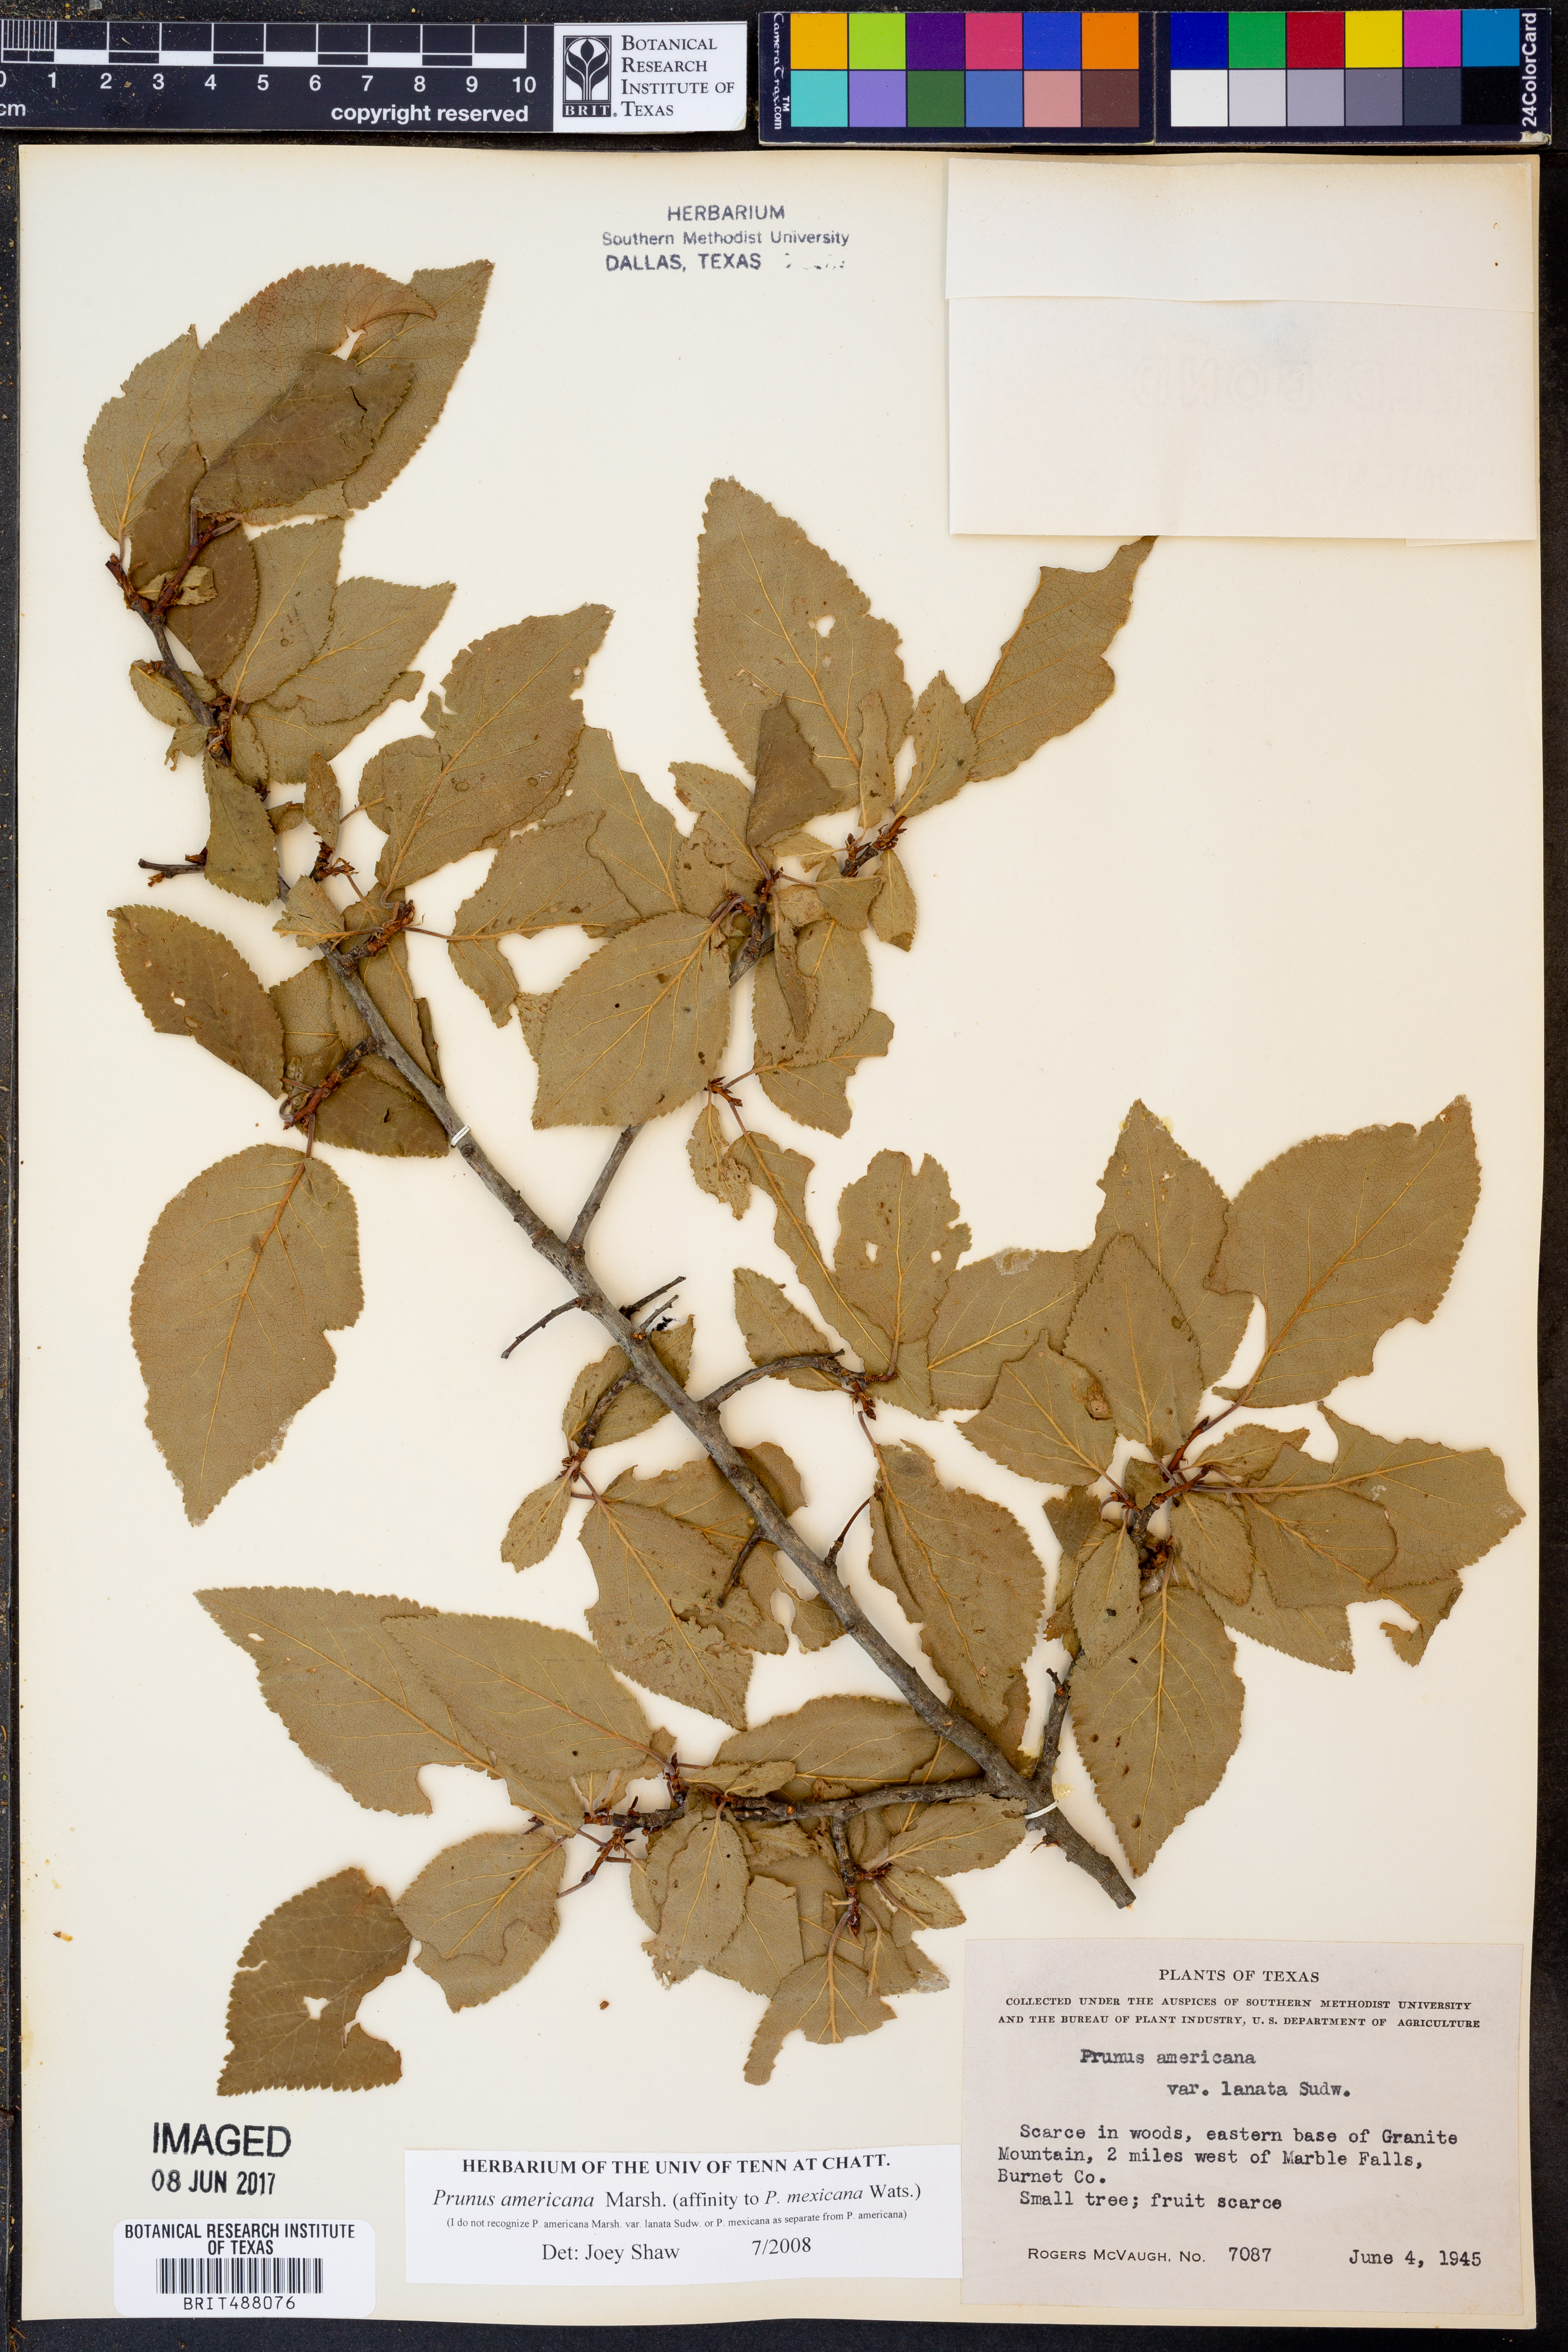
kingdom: Plantae
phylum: Tracheophyta
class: Magnoliopsida
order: Rosales
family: Rosaceae
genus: Prunus
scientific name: Prunus americana
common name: American plum
